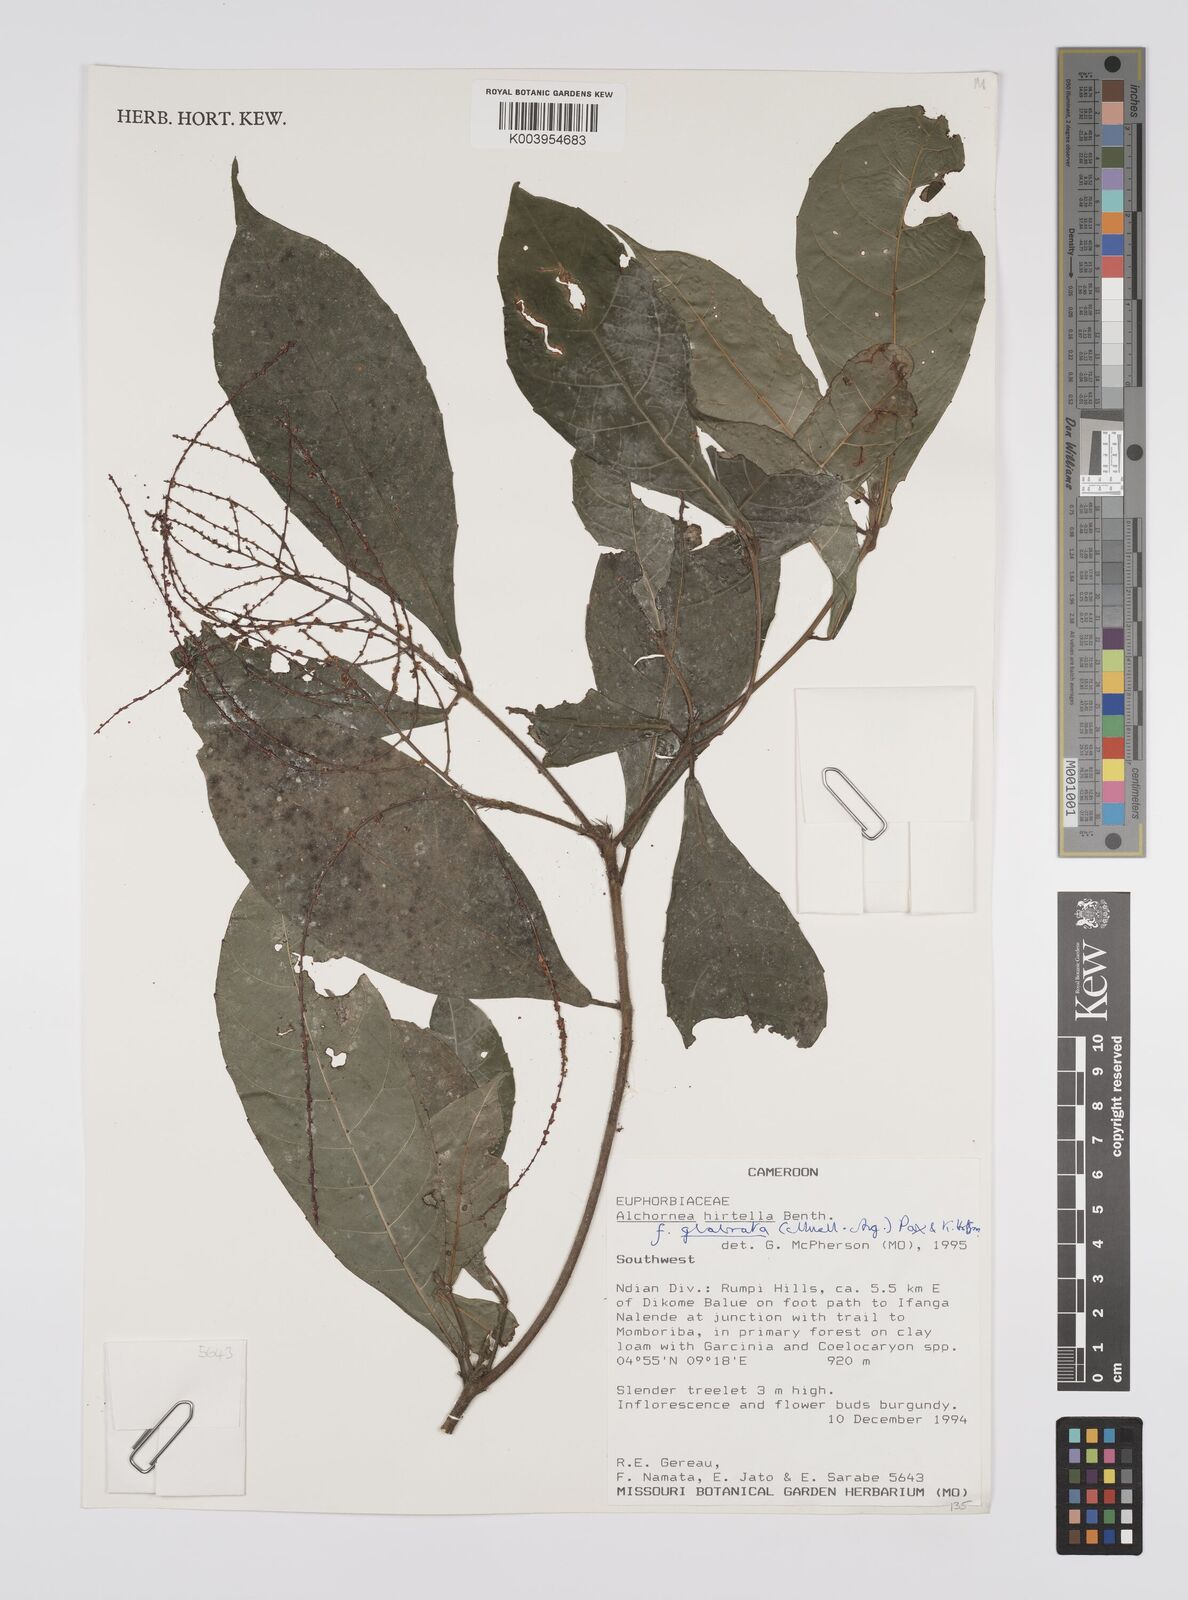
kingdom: Plantae
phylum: Tracheophyta
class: Magnoliopsida
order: Malpighiales
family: Euphorbiaceae
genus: Alchornea
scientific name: Alchornea hirtella
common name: Forest bead-string
